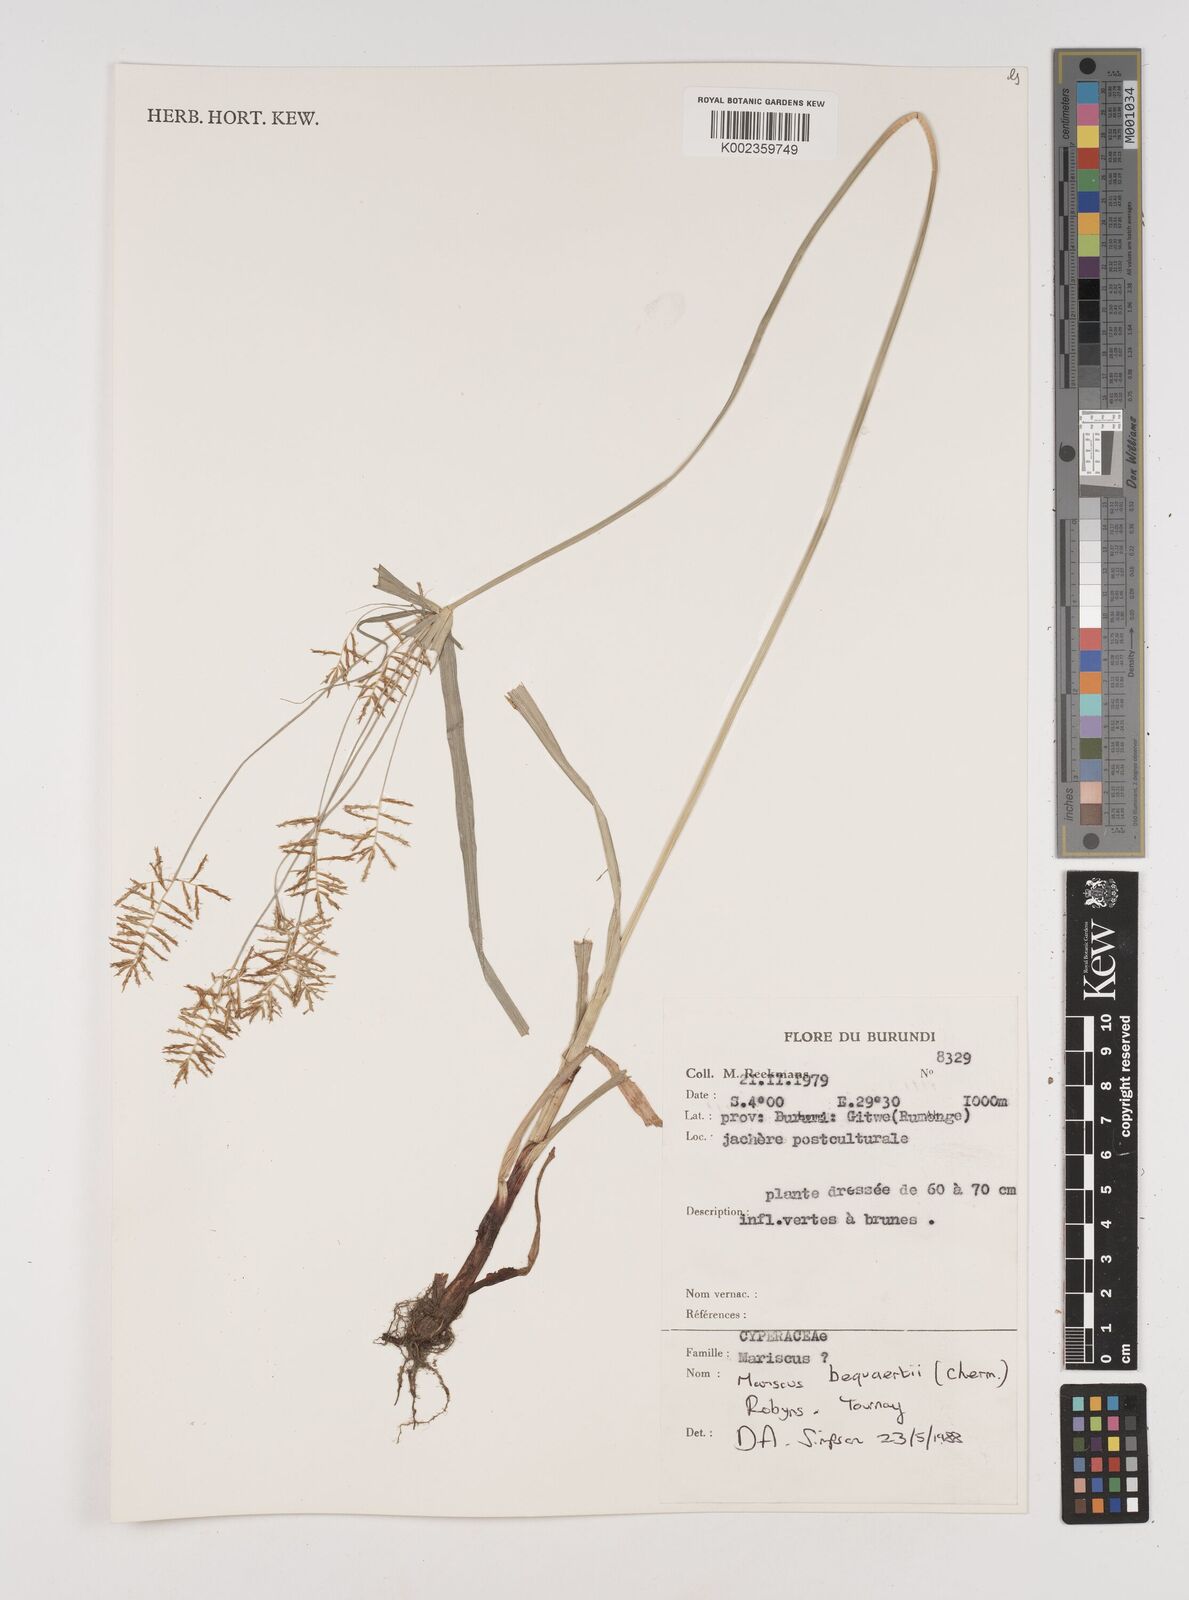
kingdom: Plantae
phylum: Tracheophyta
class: Liliopsida
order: Poales
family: Cyperaceae
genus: Cyperus
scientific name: Cyperus ferrugineoviridis
